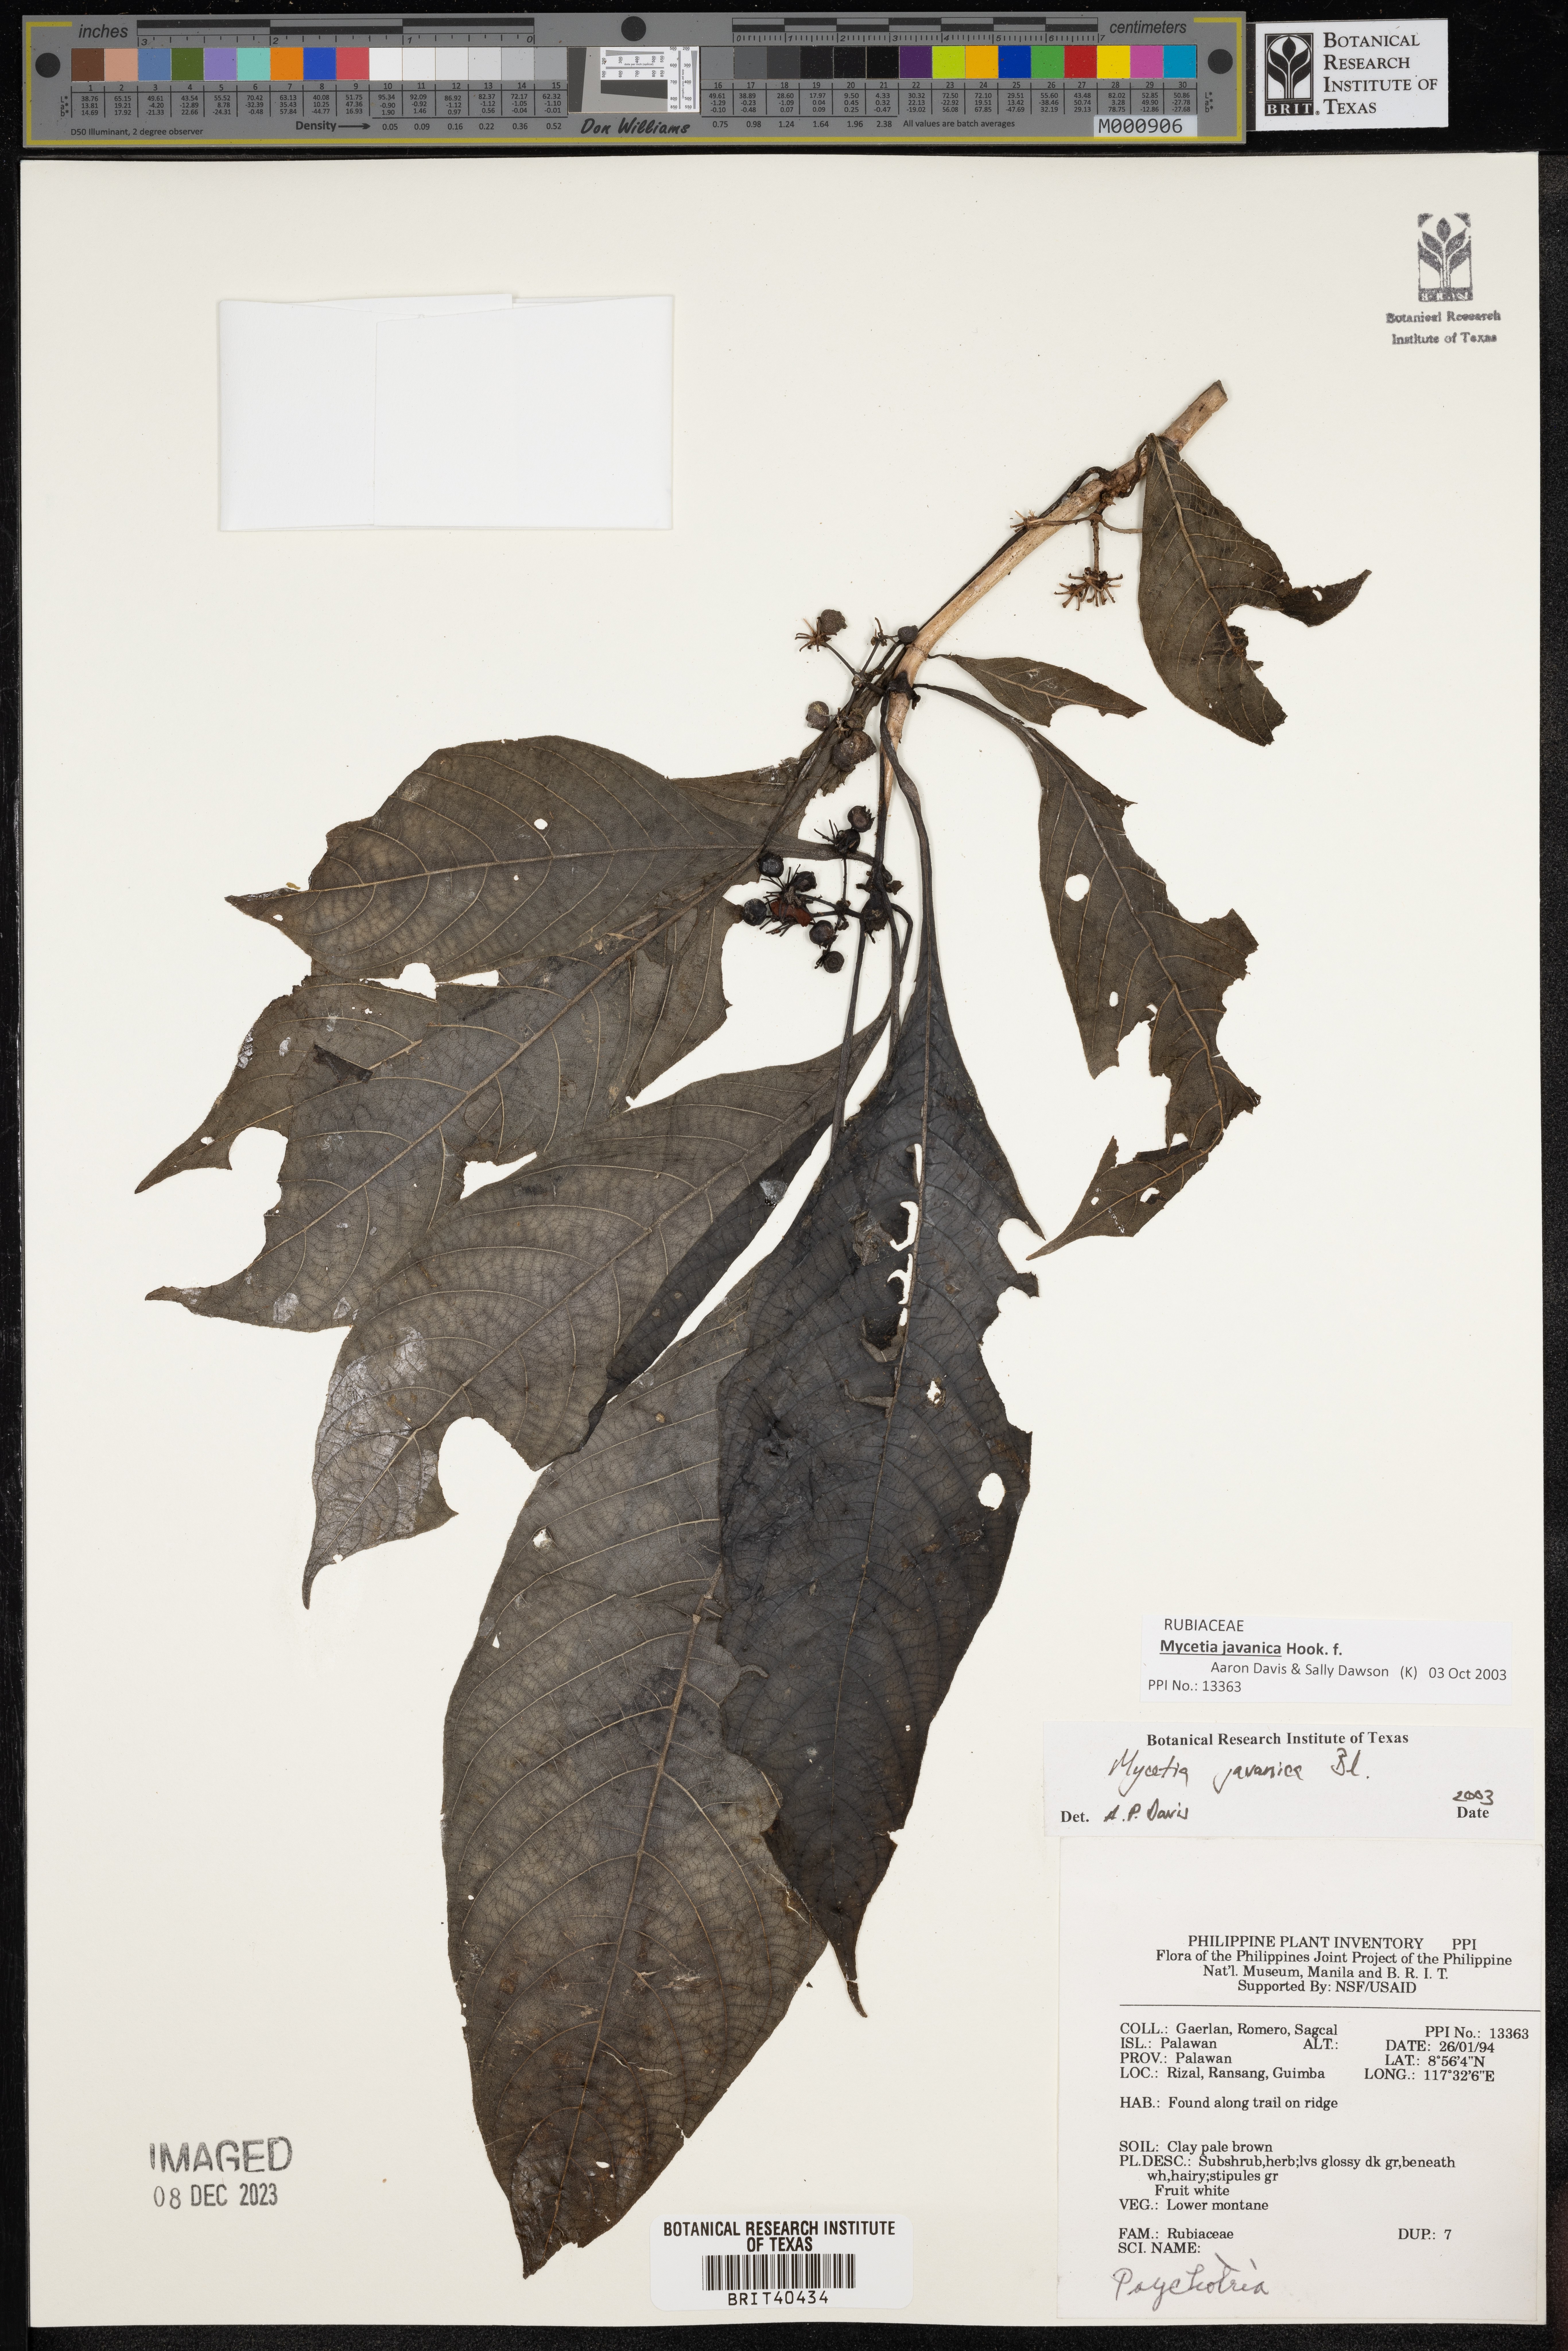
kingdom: Plantae
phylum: Tracheophyta
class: Magnoliopsida
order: Gentianales
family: Rubiaceae
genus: Mycetia
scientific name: Mycetia javanica
